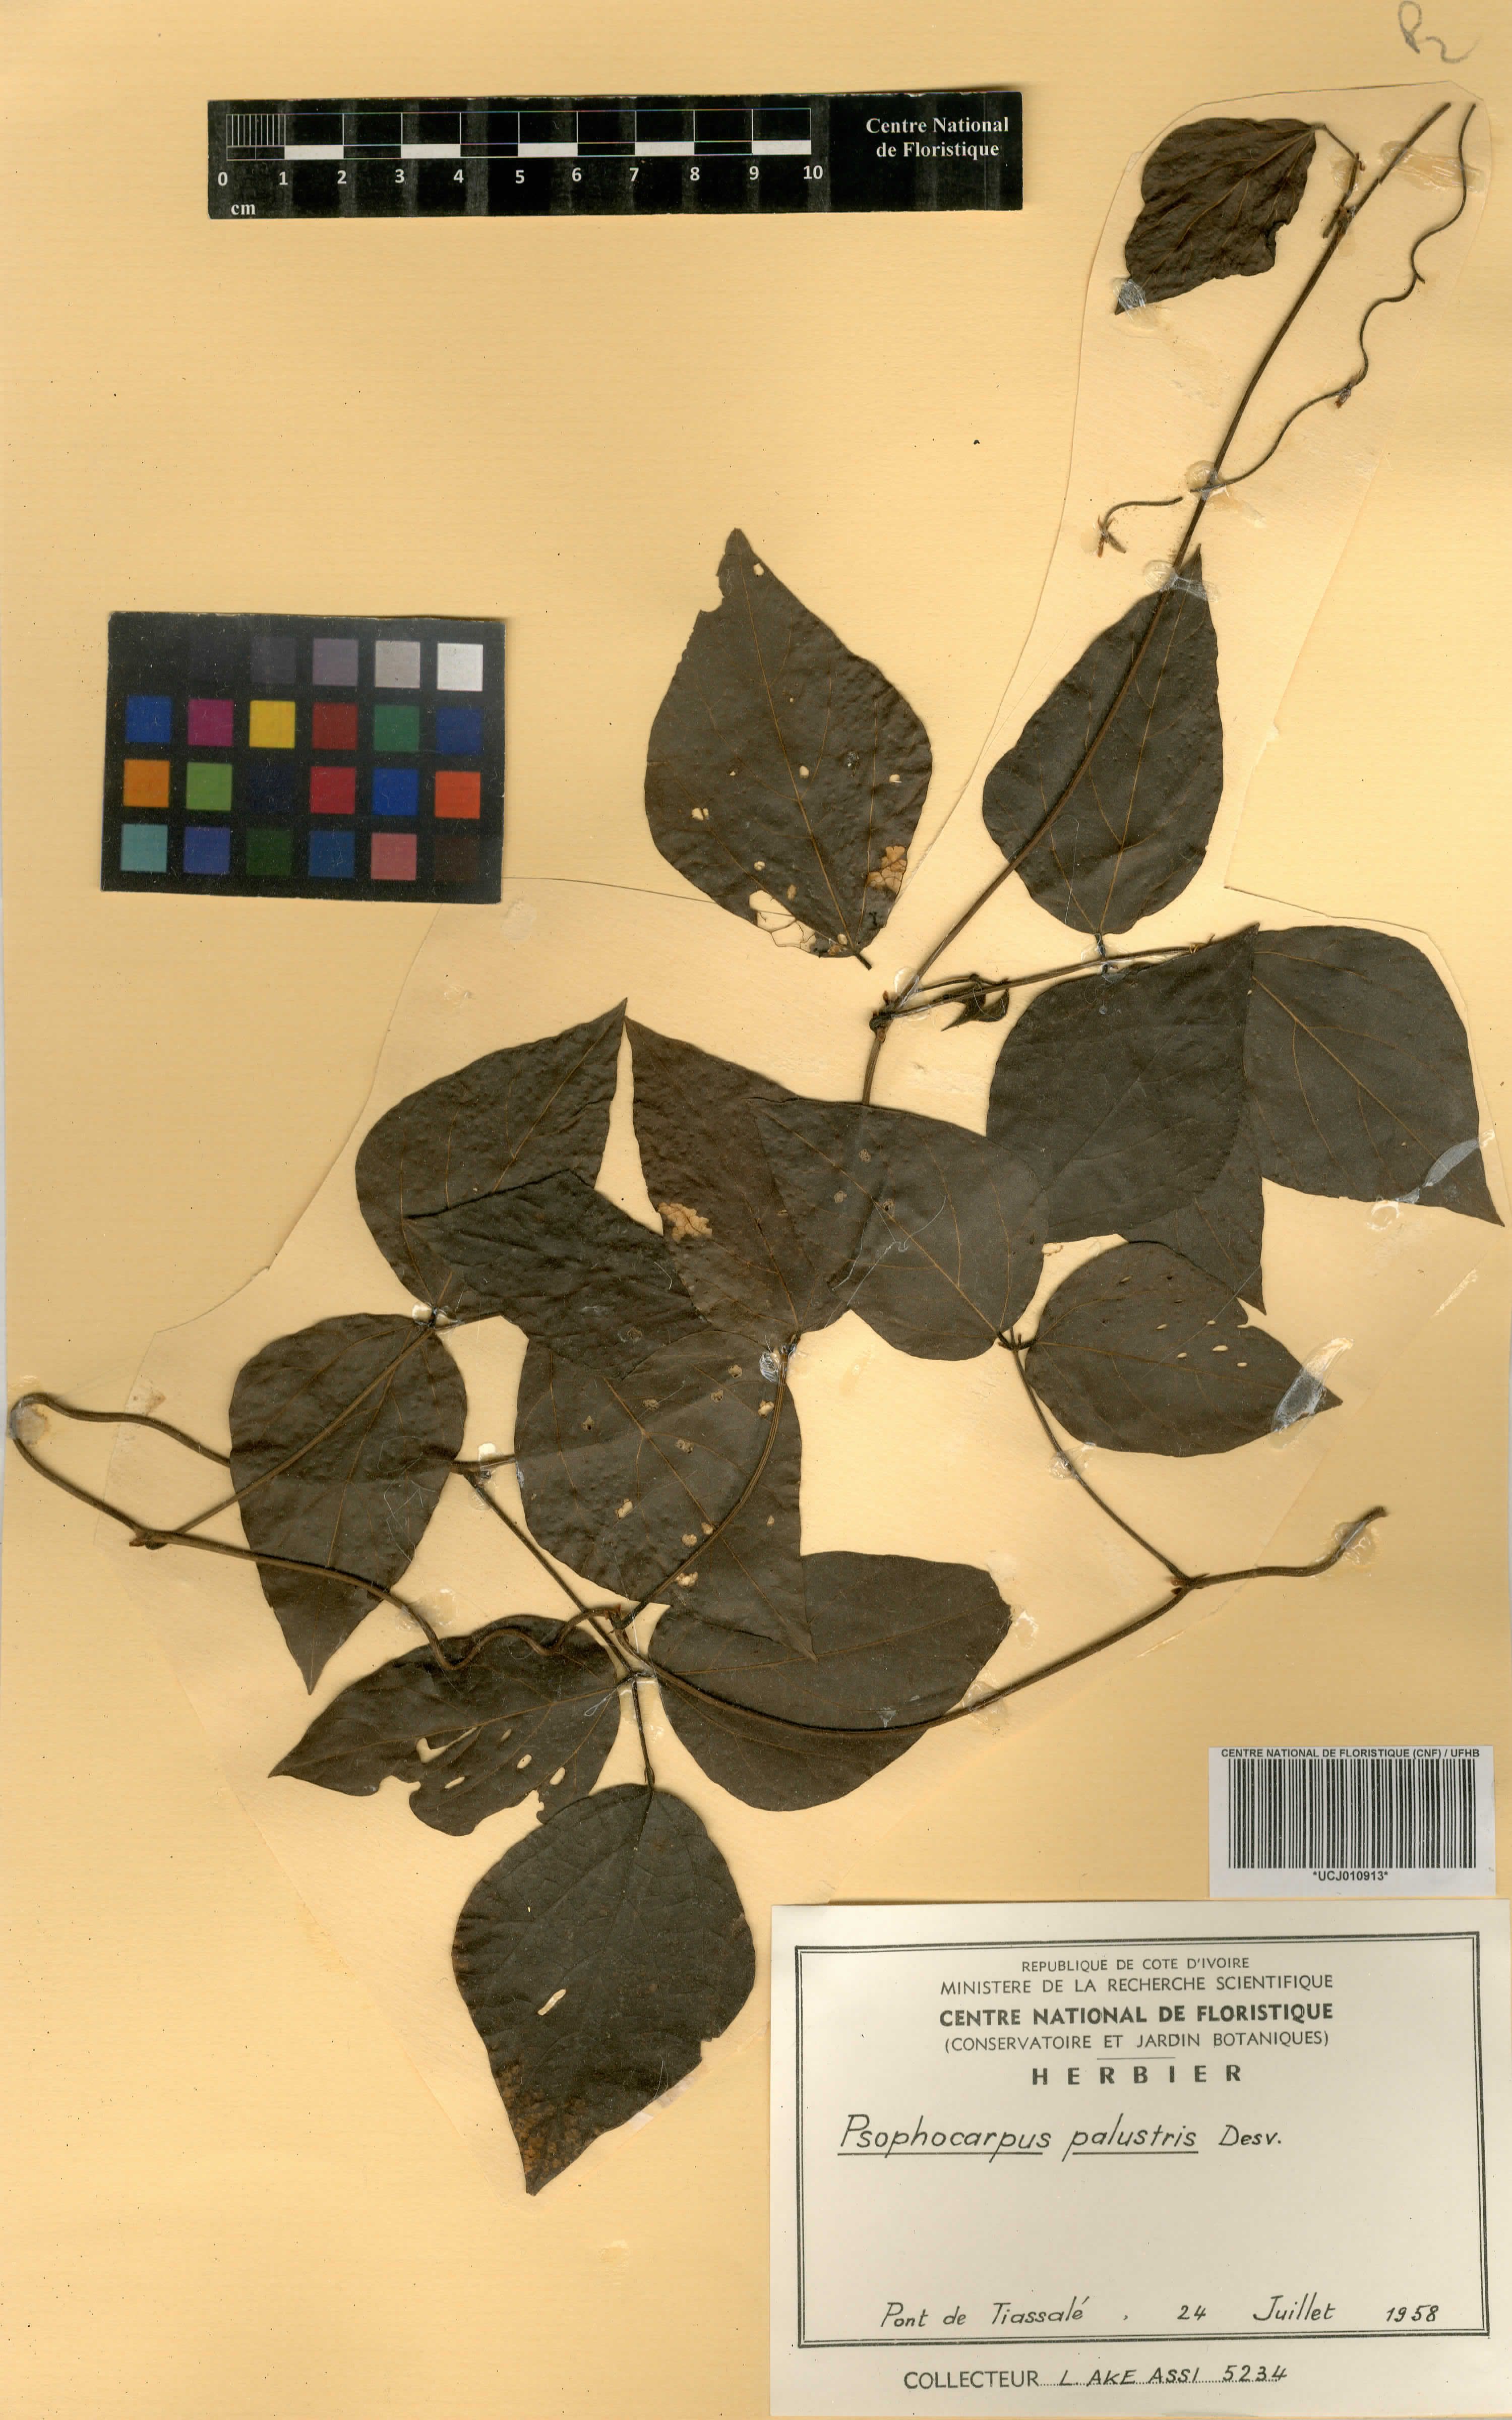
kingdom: Plantae
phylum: Tracheophyta
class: Magnoliopsida
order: Fabales
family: Fabaceae
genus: Psophocarpus
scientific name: Psophocarpus palustris
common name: African winged-bean
